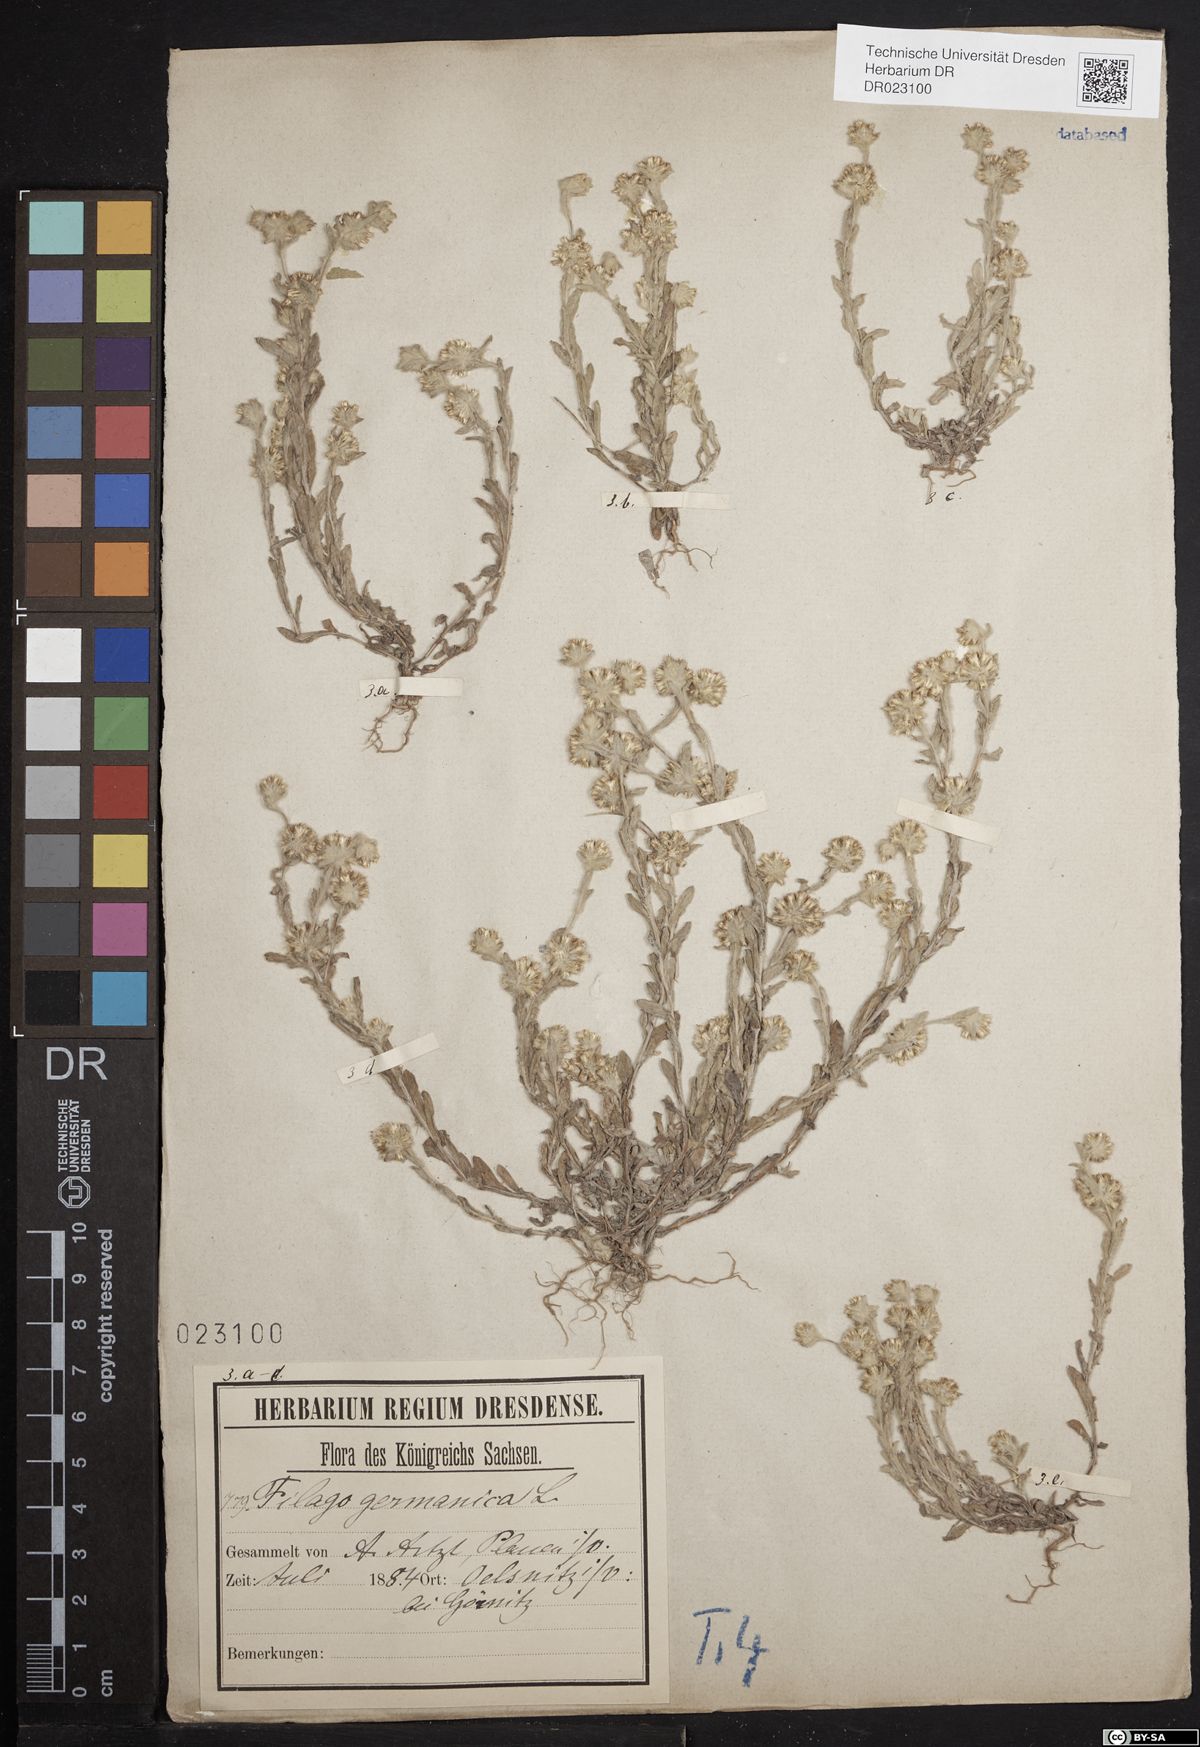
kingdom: Plantae
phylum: Tracheophyta
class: Magnoliopsida
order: Asterales
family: Asteraceae
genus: Filago
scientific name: Filago germanica
